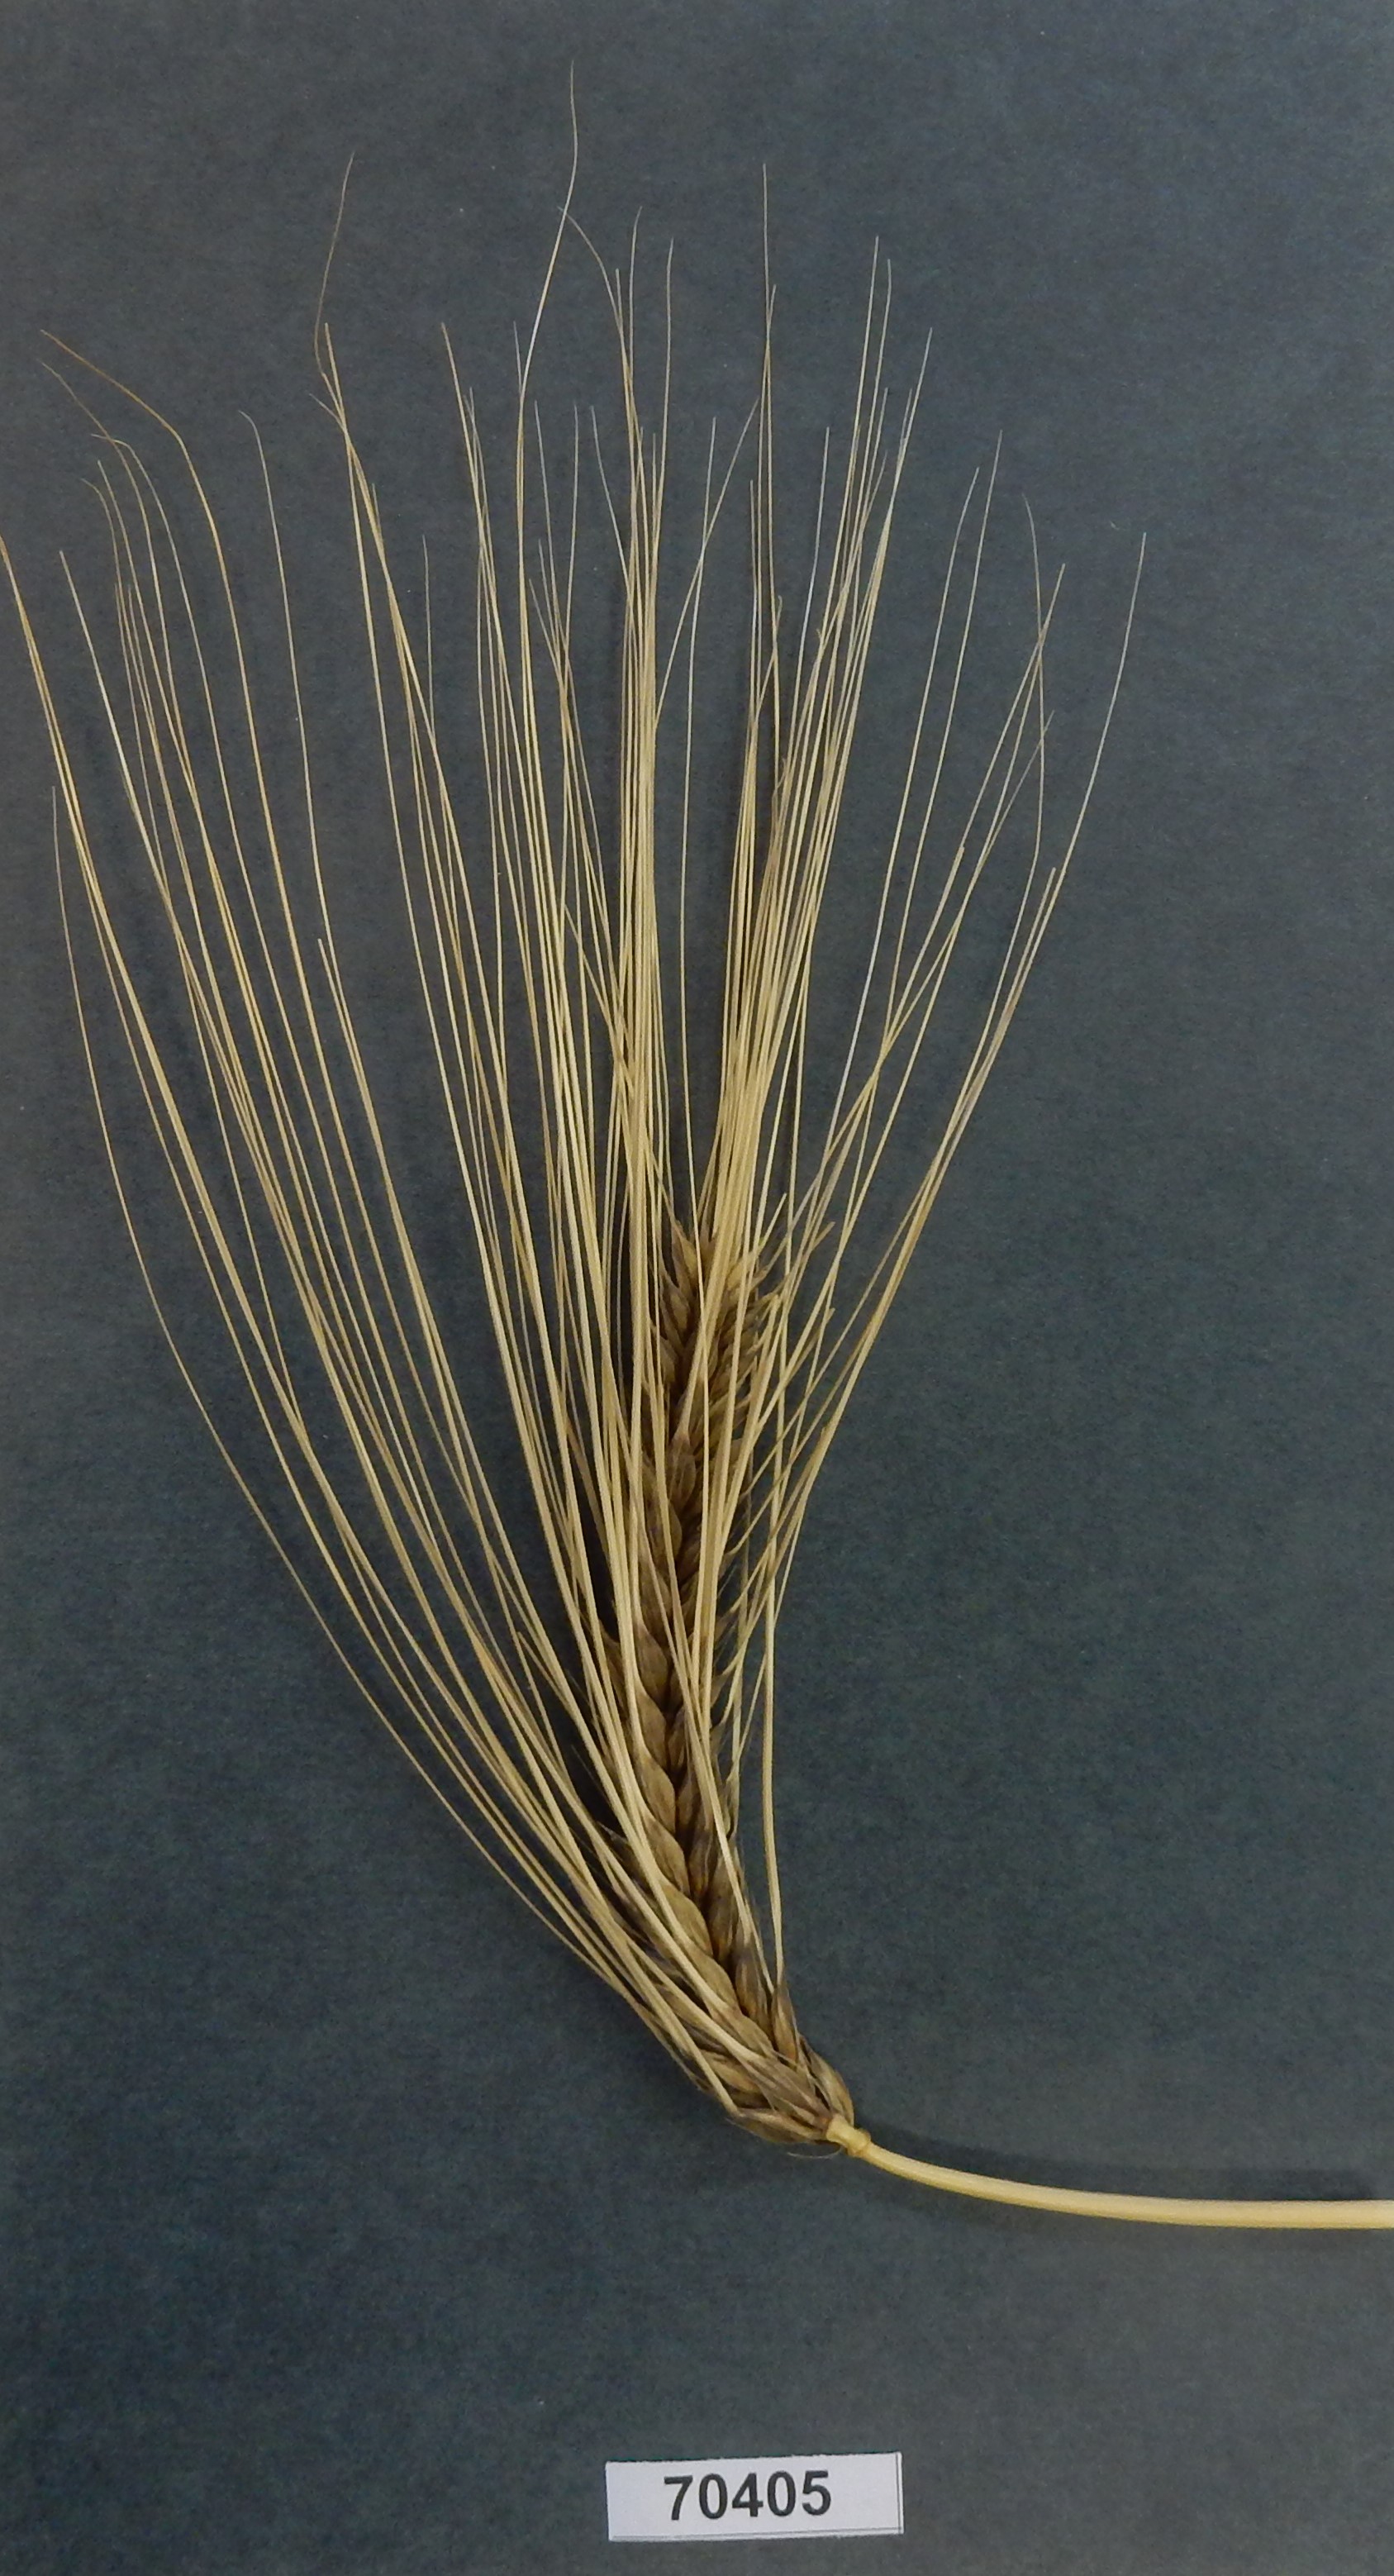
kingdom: Plantae
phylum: Tracheophyta
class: Liliopsida
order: Poales
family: Poaceae
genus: Hordeum
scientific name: Hordeum vulgare
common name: Barley
